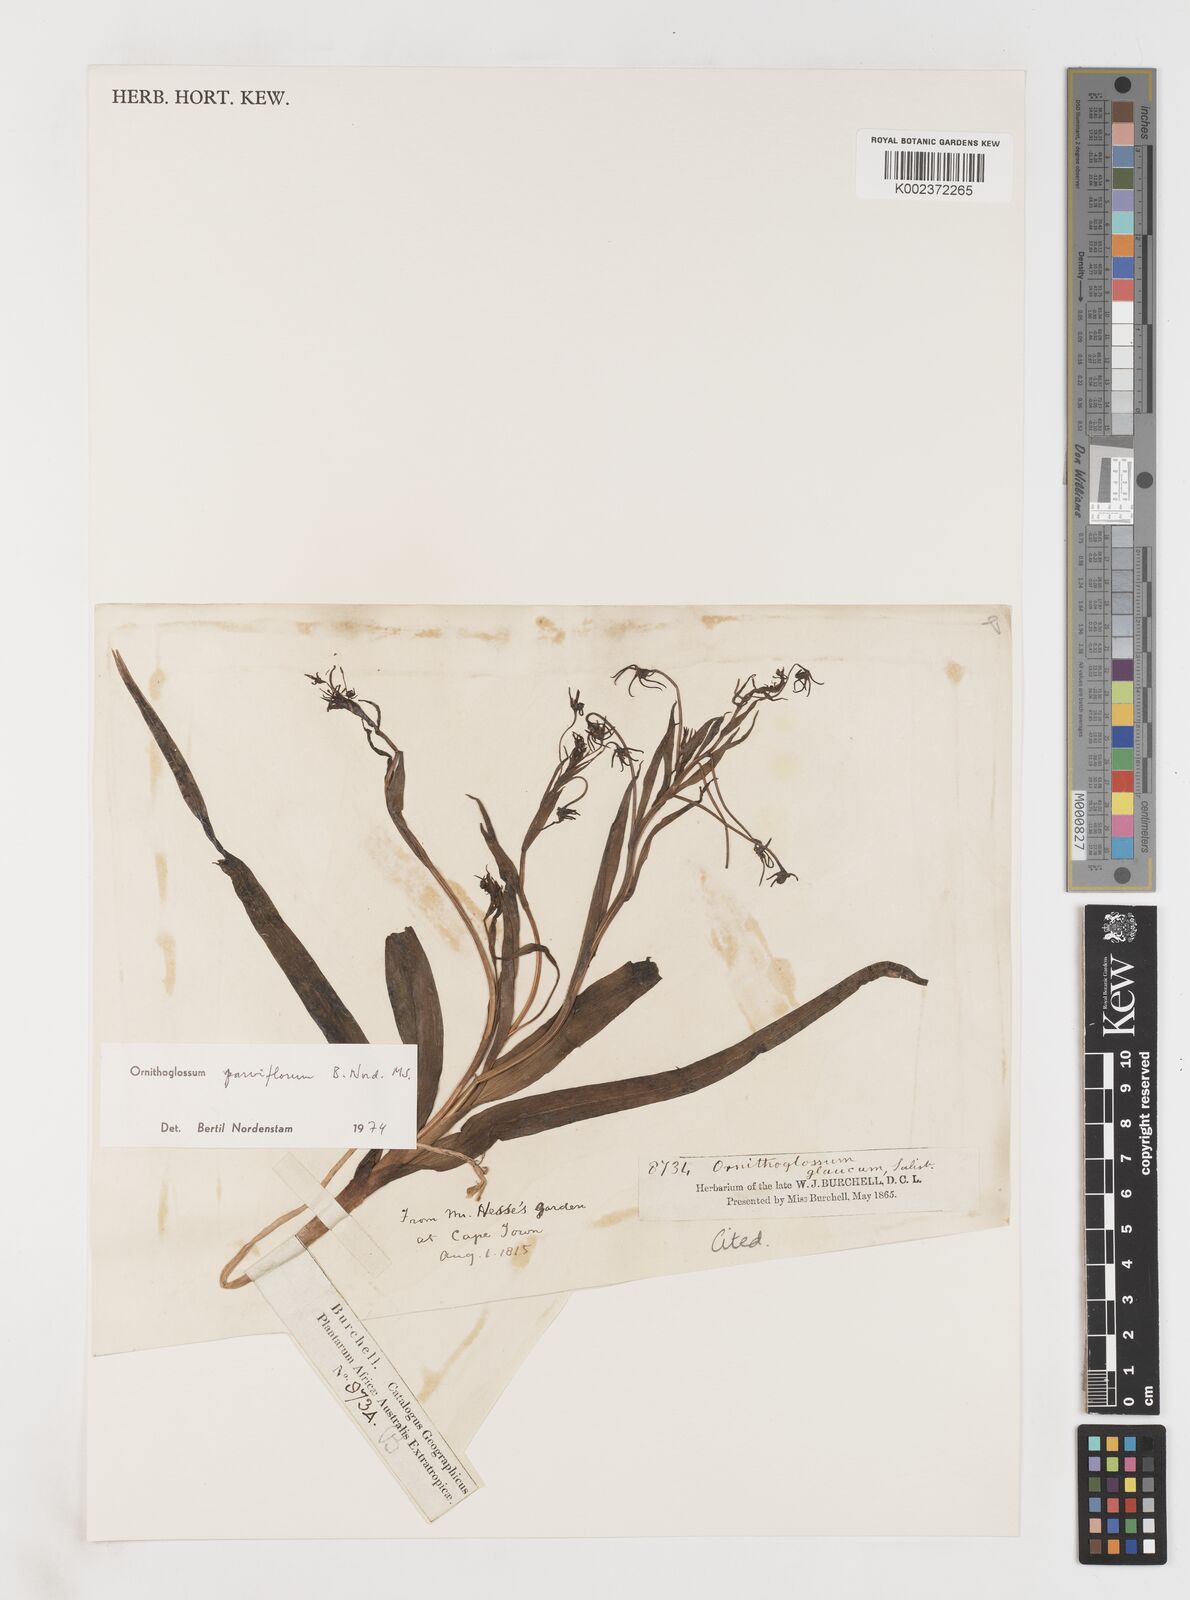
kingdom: Plantae
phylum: Tracheophyta
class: Liliopsida
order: Liliales
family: Colchicaceae
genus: Ornithoglossum
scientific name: Ornithoglossum parviflorum
